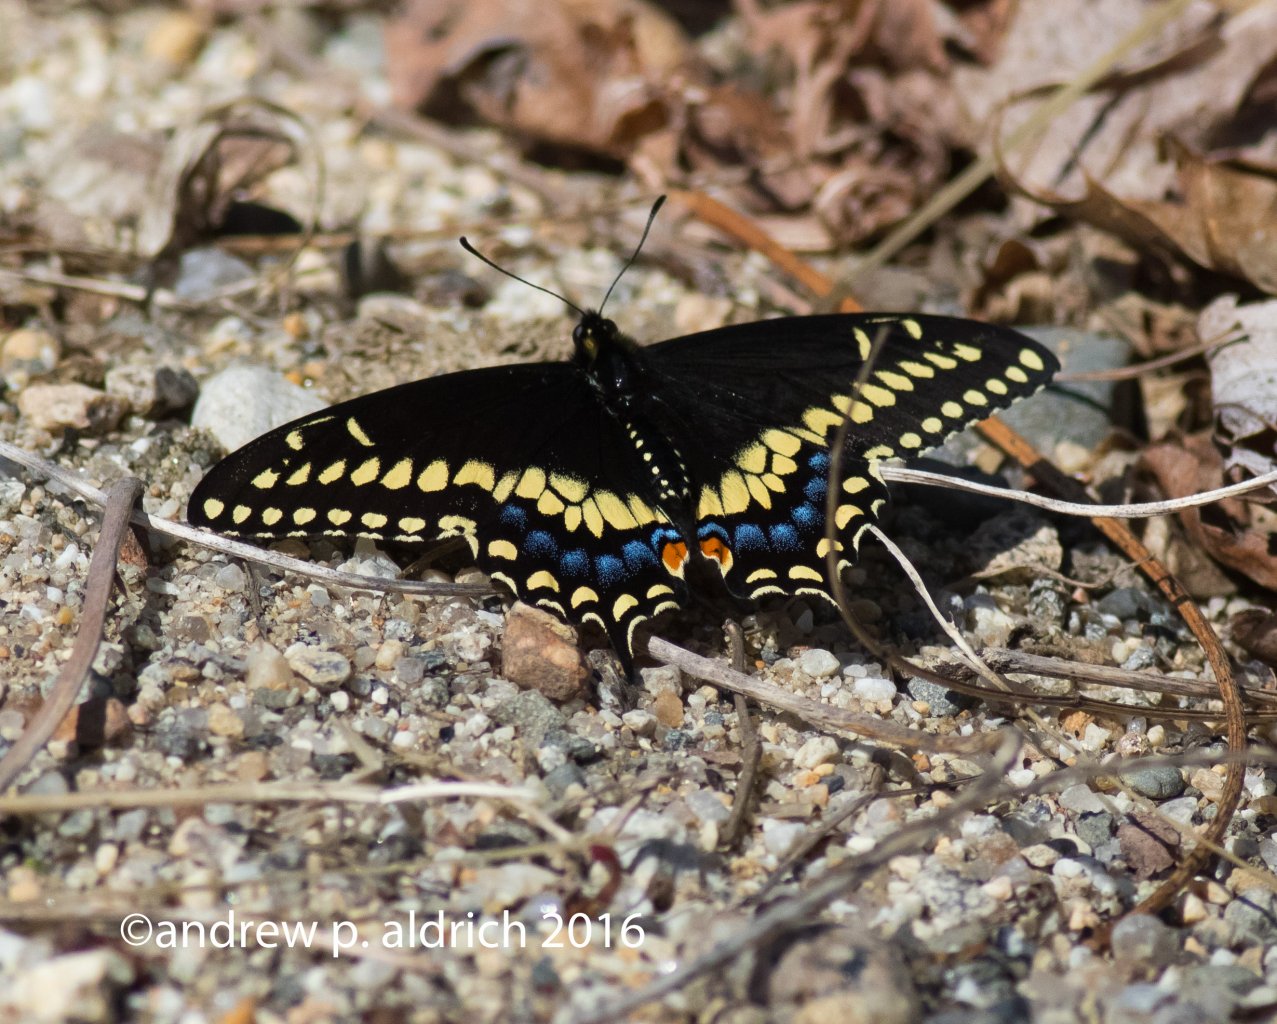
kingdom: Animalia
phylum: Arthropoda
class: Insecta
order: Lepidoptera
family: Papilionidae
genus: Papilio
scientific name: Papilio polyxenes
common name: Black Swallowtail
